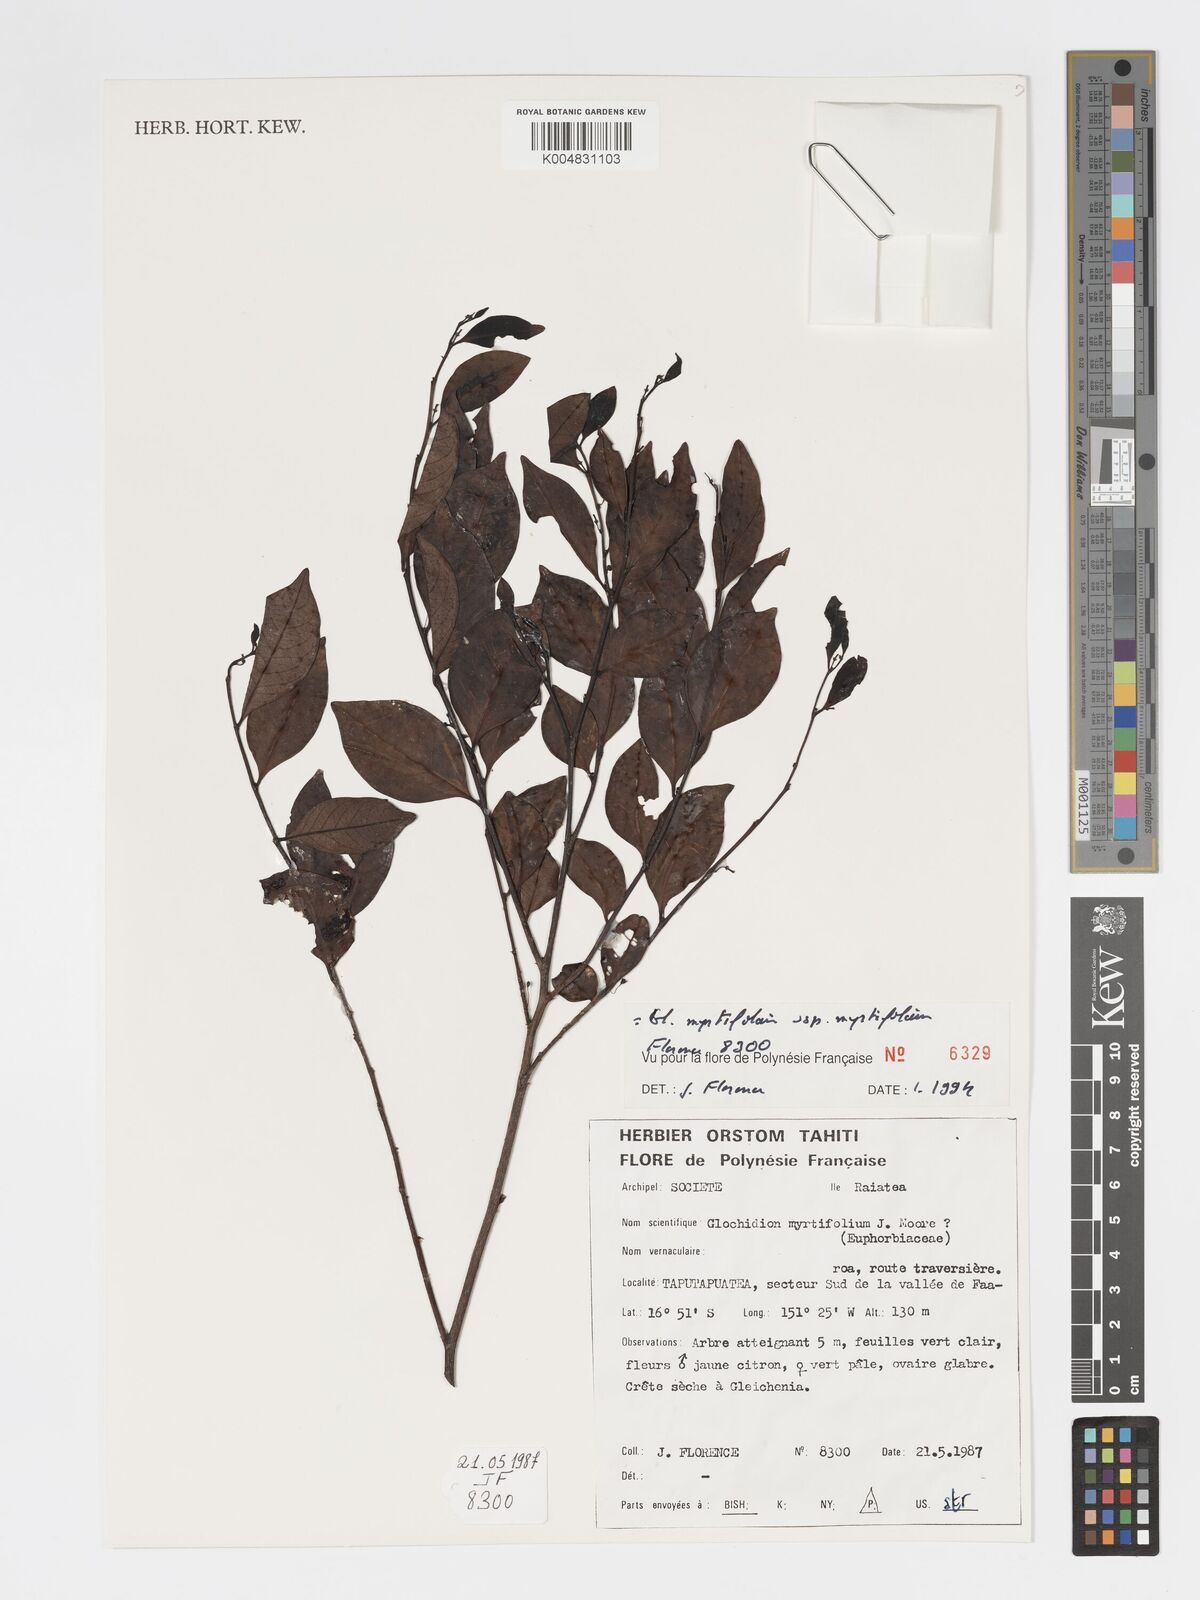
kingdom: Plantae
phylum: Tracheophyta
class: Magnoliopsida
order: Malpighiales
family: Phyllanthaceae
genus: Glochidion
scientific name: Glochidion myrtifolium
